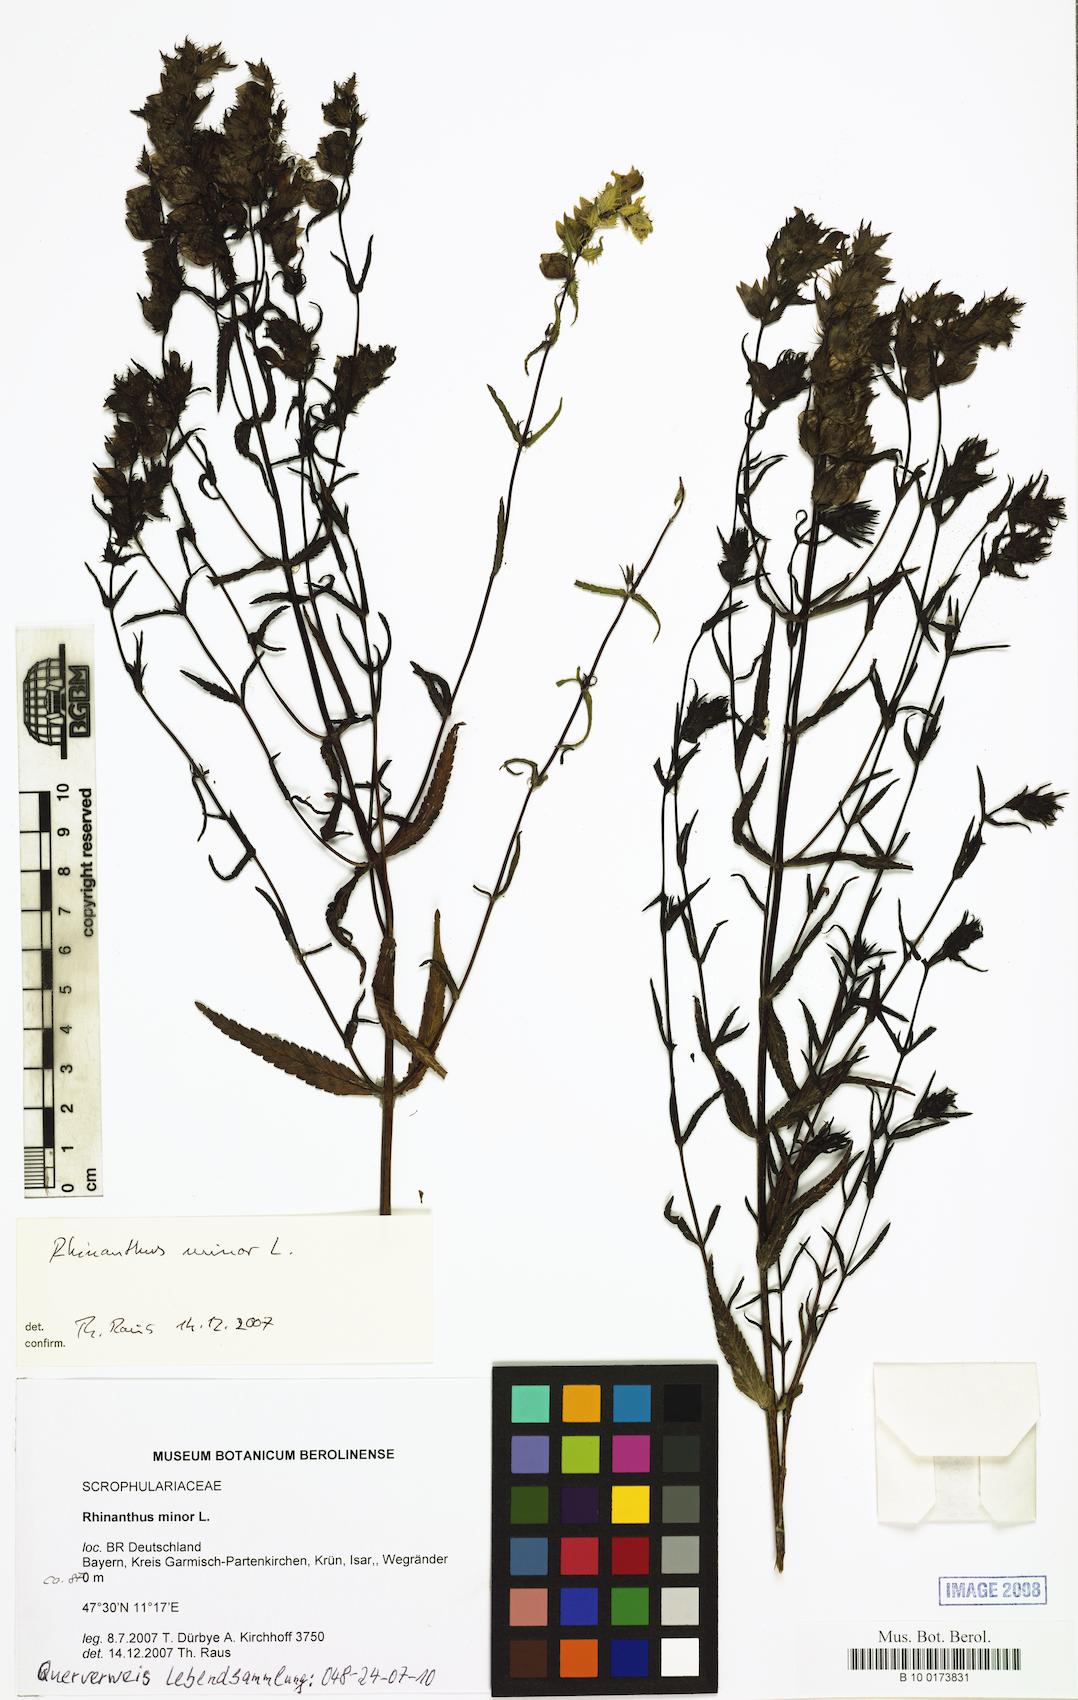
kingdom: Plantae
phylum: Tracheophyta
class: Magnoliopsida
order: Lamiales
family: Orobanchaceae
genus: Rhinanthus
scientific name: Rhinanthus minor
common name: Yellow-rattle
